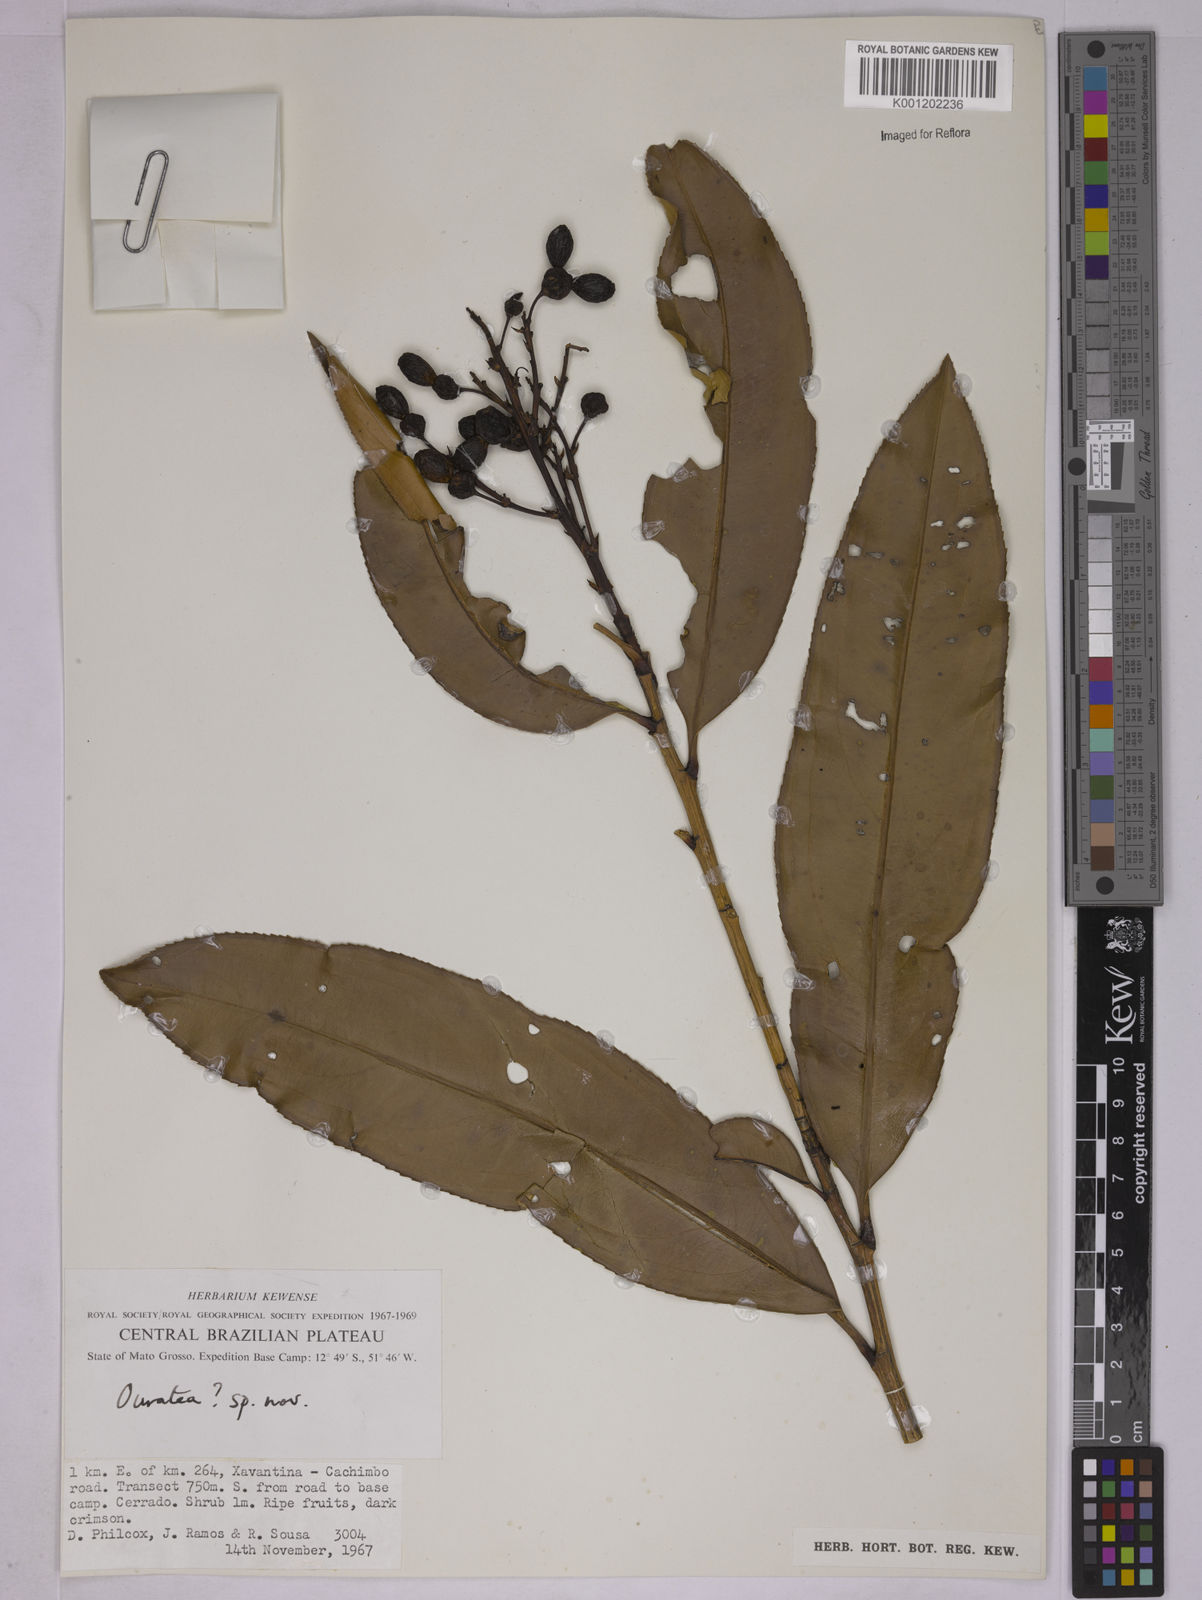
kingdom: Plantae
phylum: Tracheophyta
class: Magnoliopsida
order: Malpighiales
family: Ochnaceae
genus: Ouratea
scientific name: Ouratea
